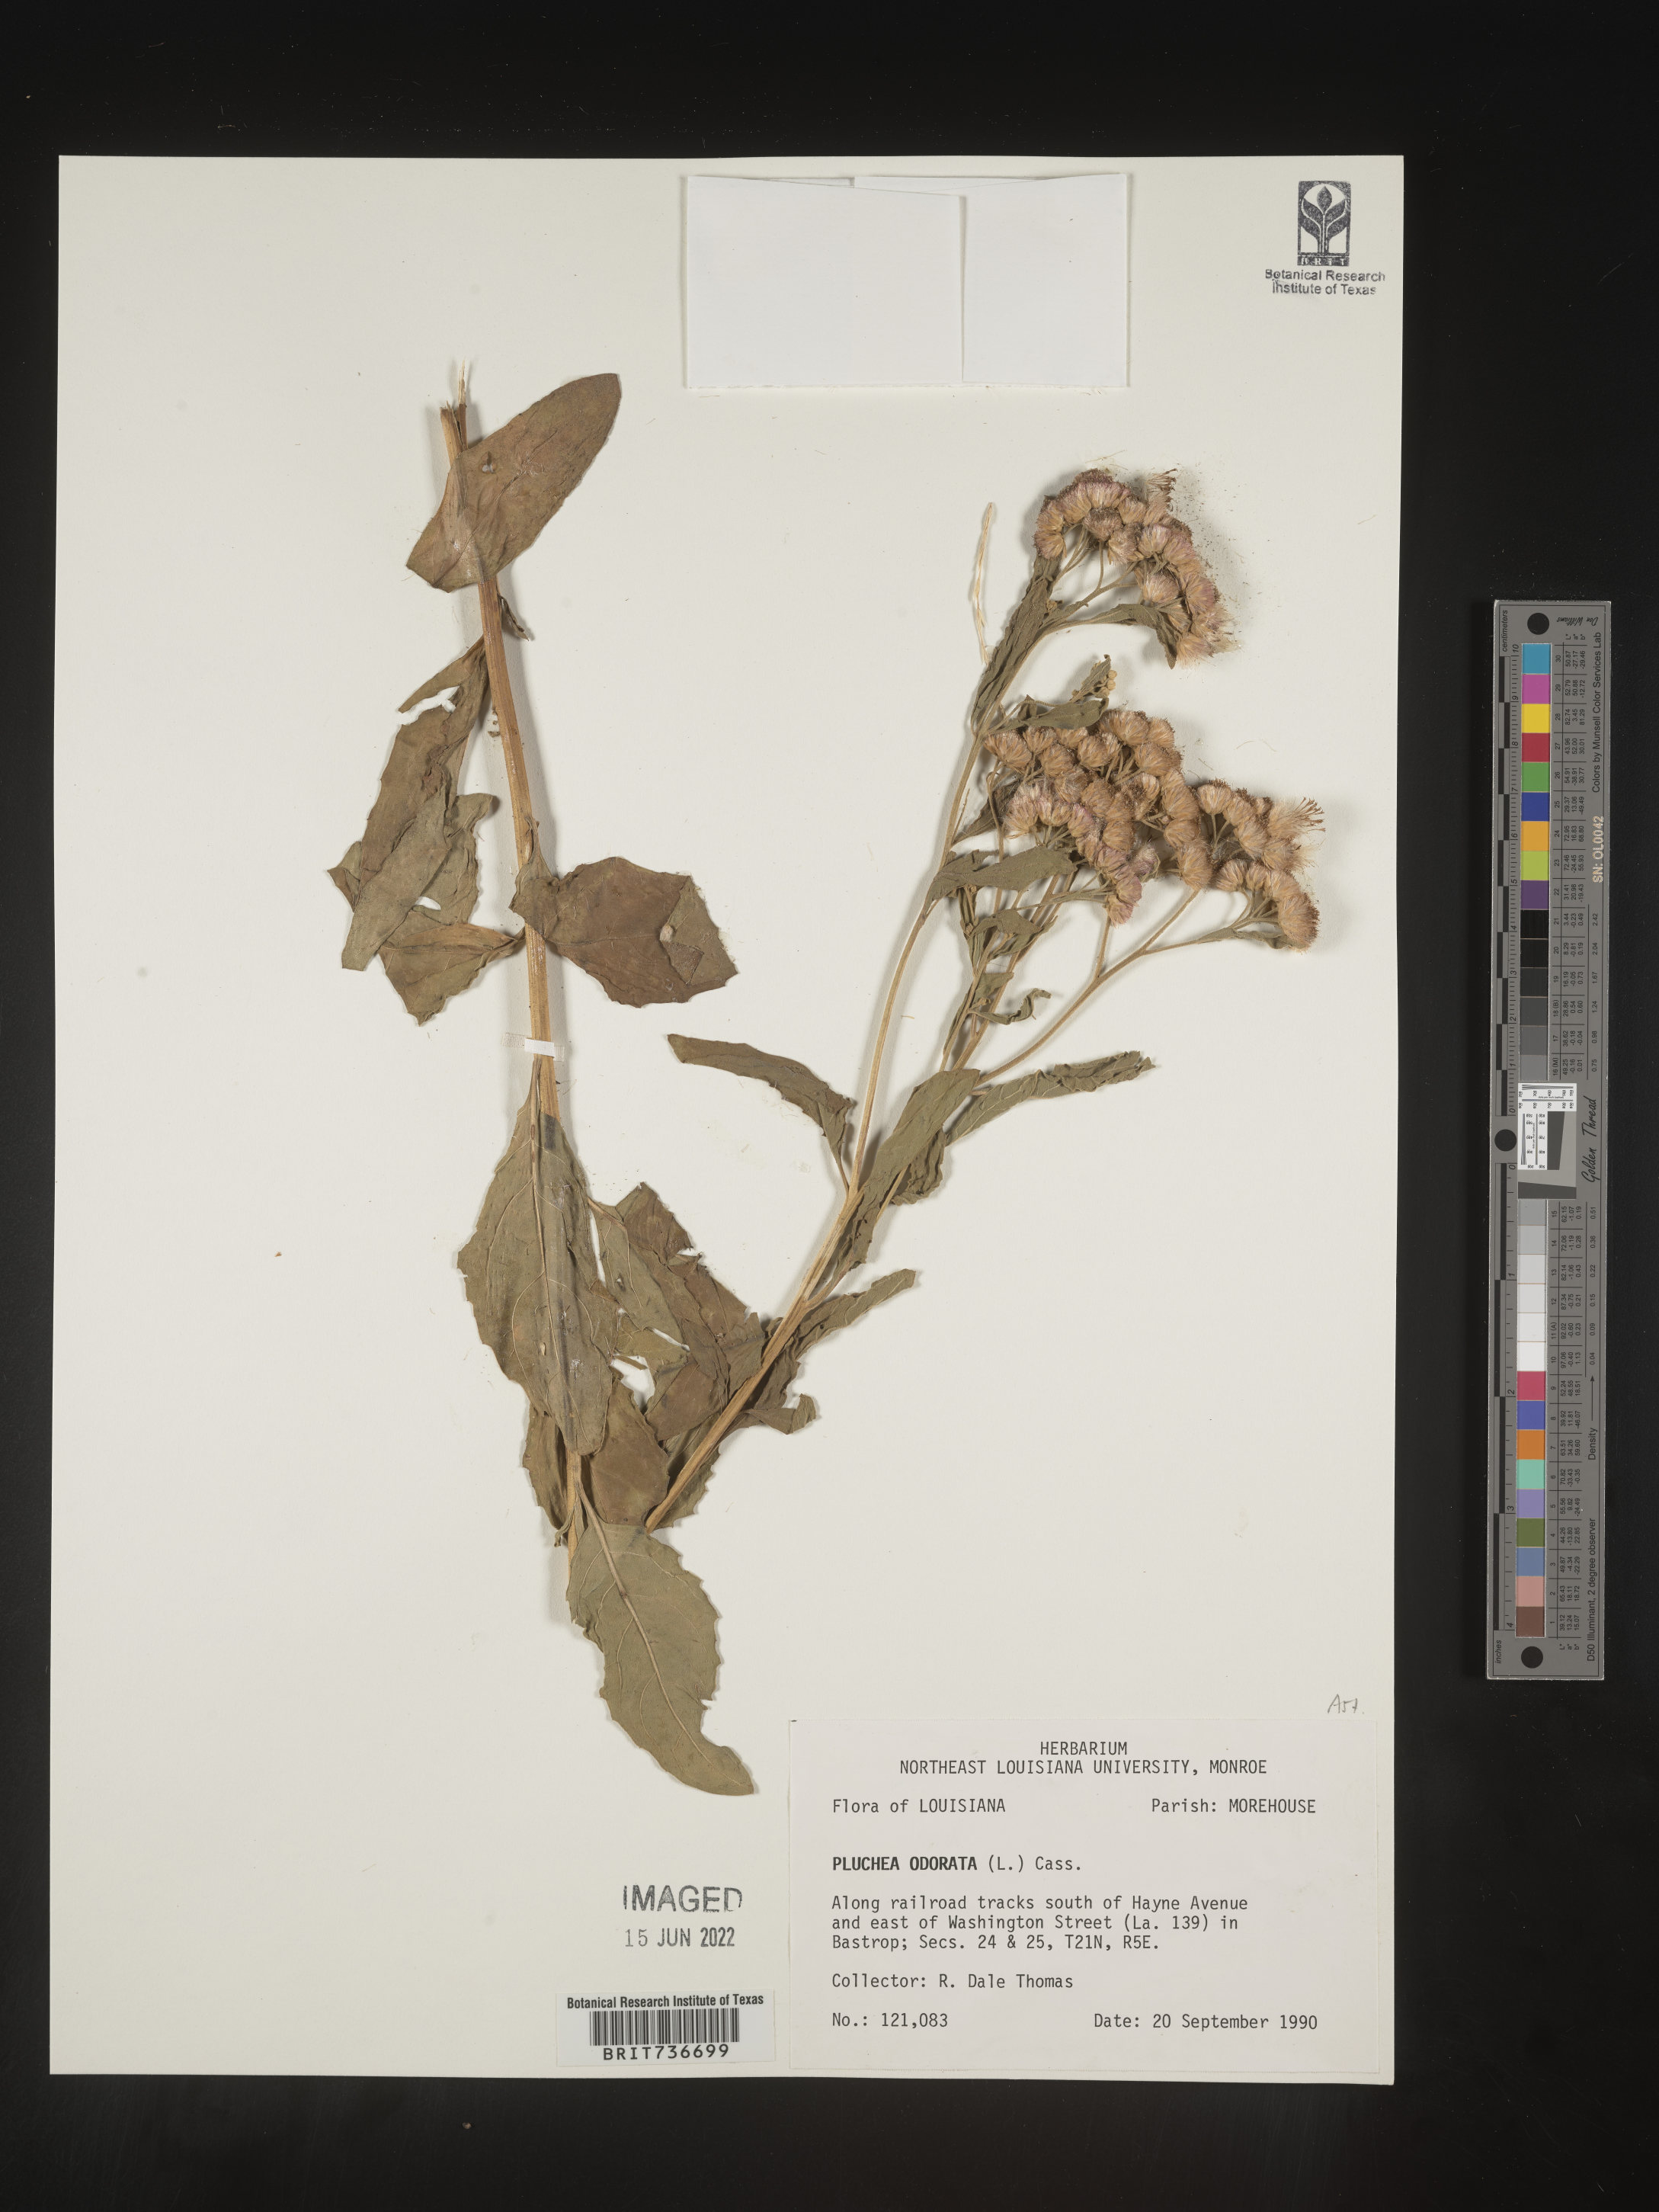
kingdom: Plantae
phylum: Tracheophyta
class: Magnoliopsida
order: Asterales
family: Asteraceae
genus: Pluchea
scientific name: Pluchea odorata
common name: Saltmarsh fleabane
